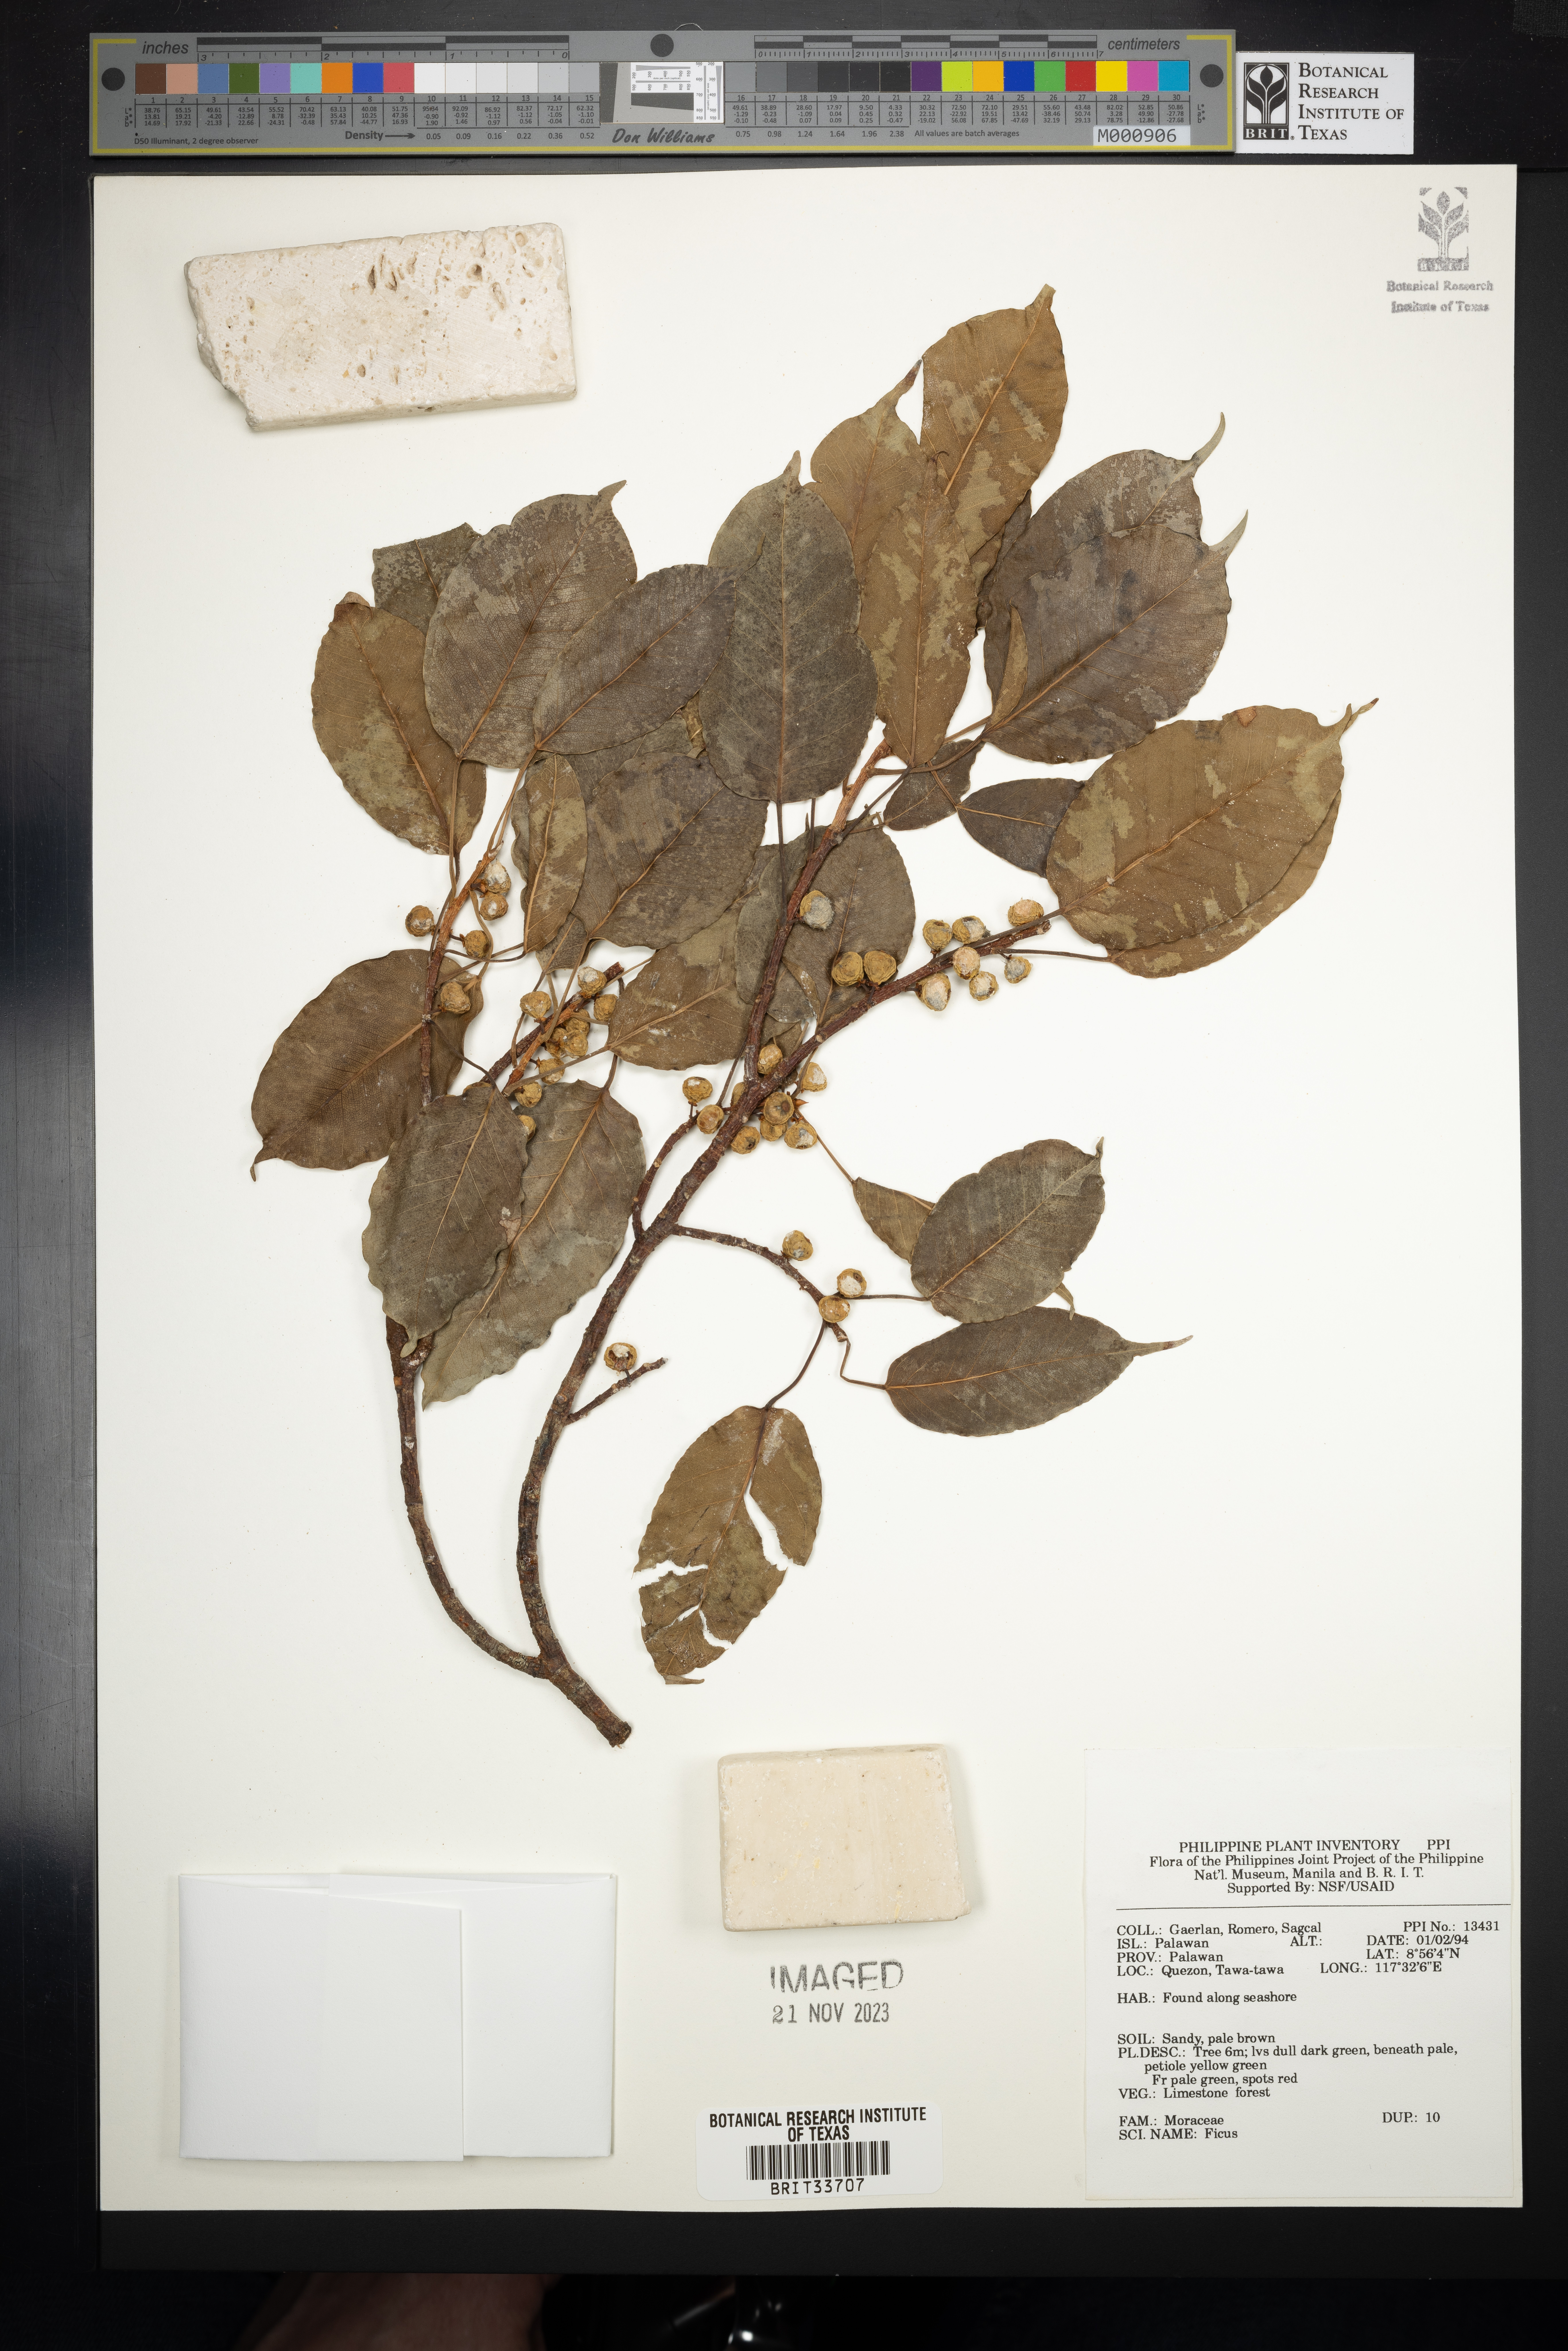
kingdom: Plantae
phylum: Tracheophyta
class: Magnoliopsida
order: Rosales
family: Moraceae
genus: Ficus
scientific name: Ficus
